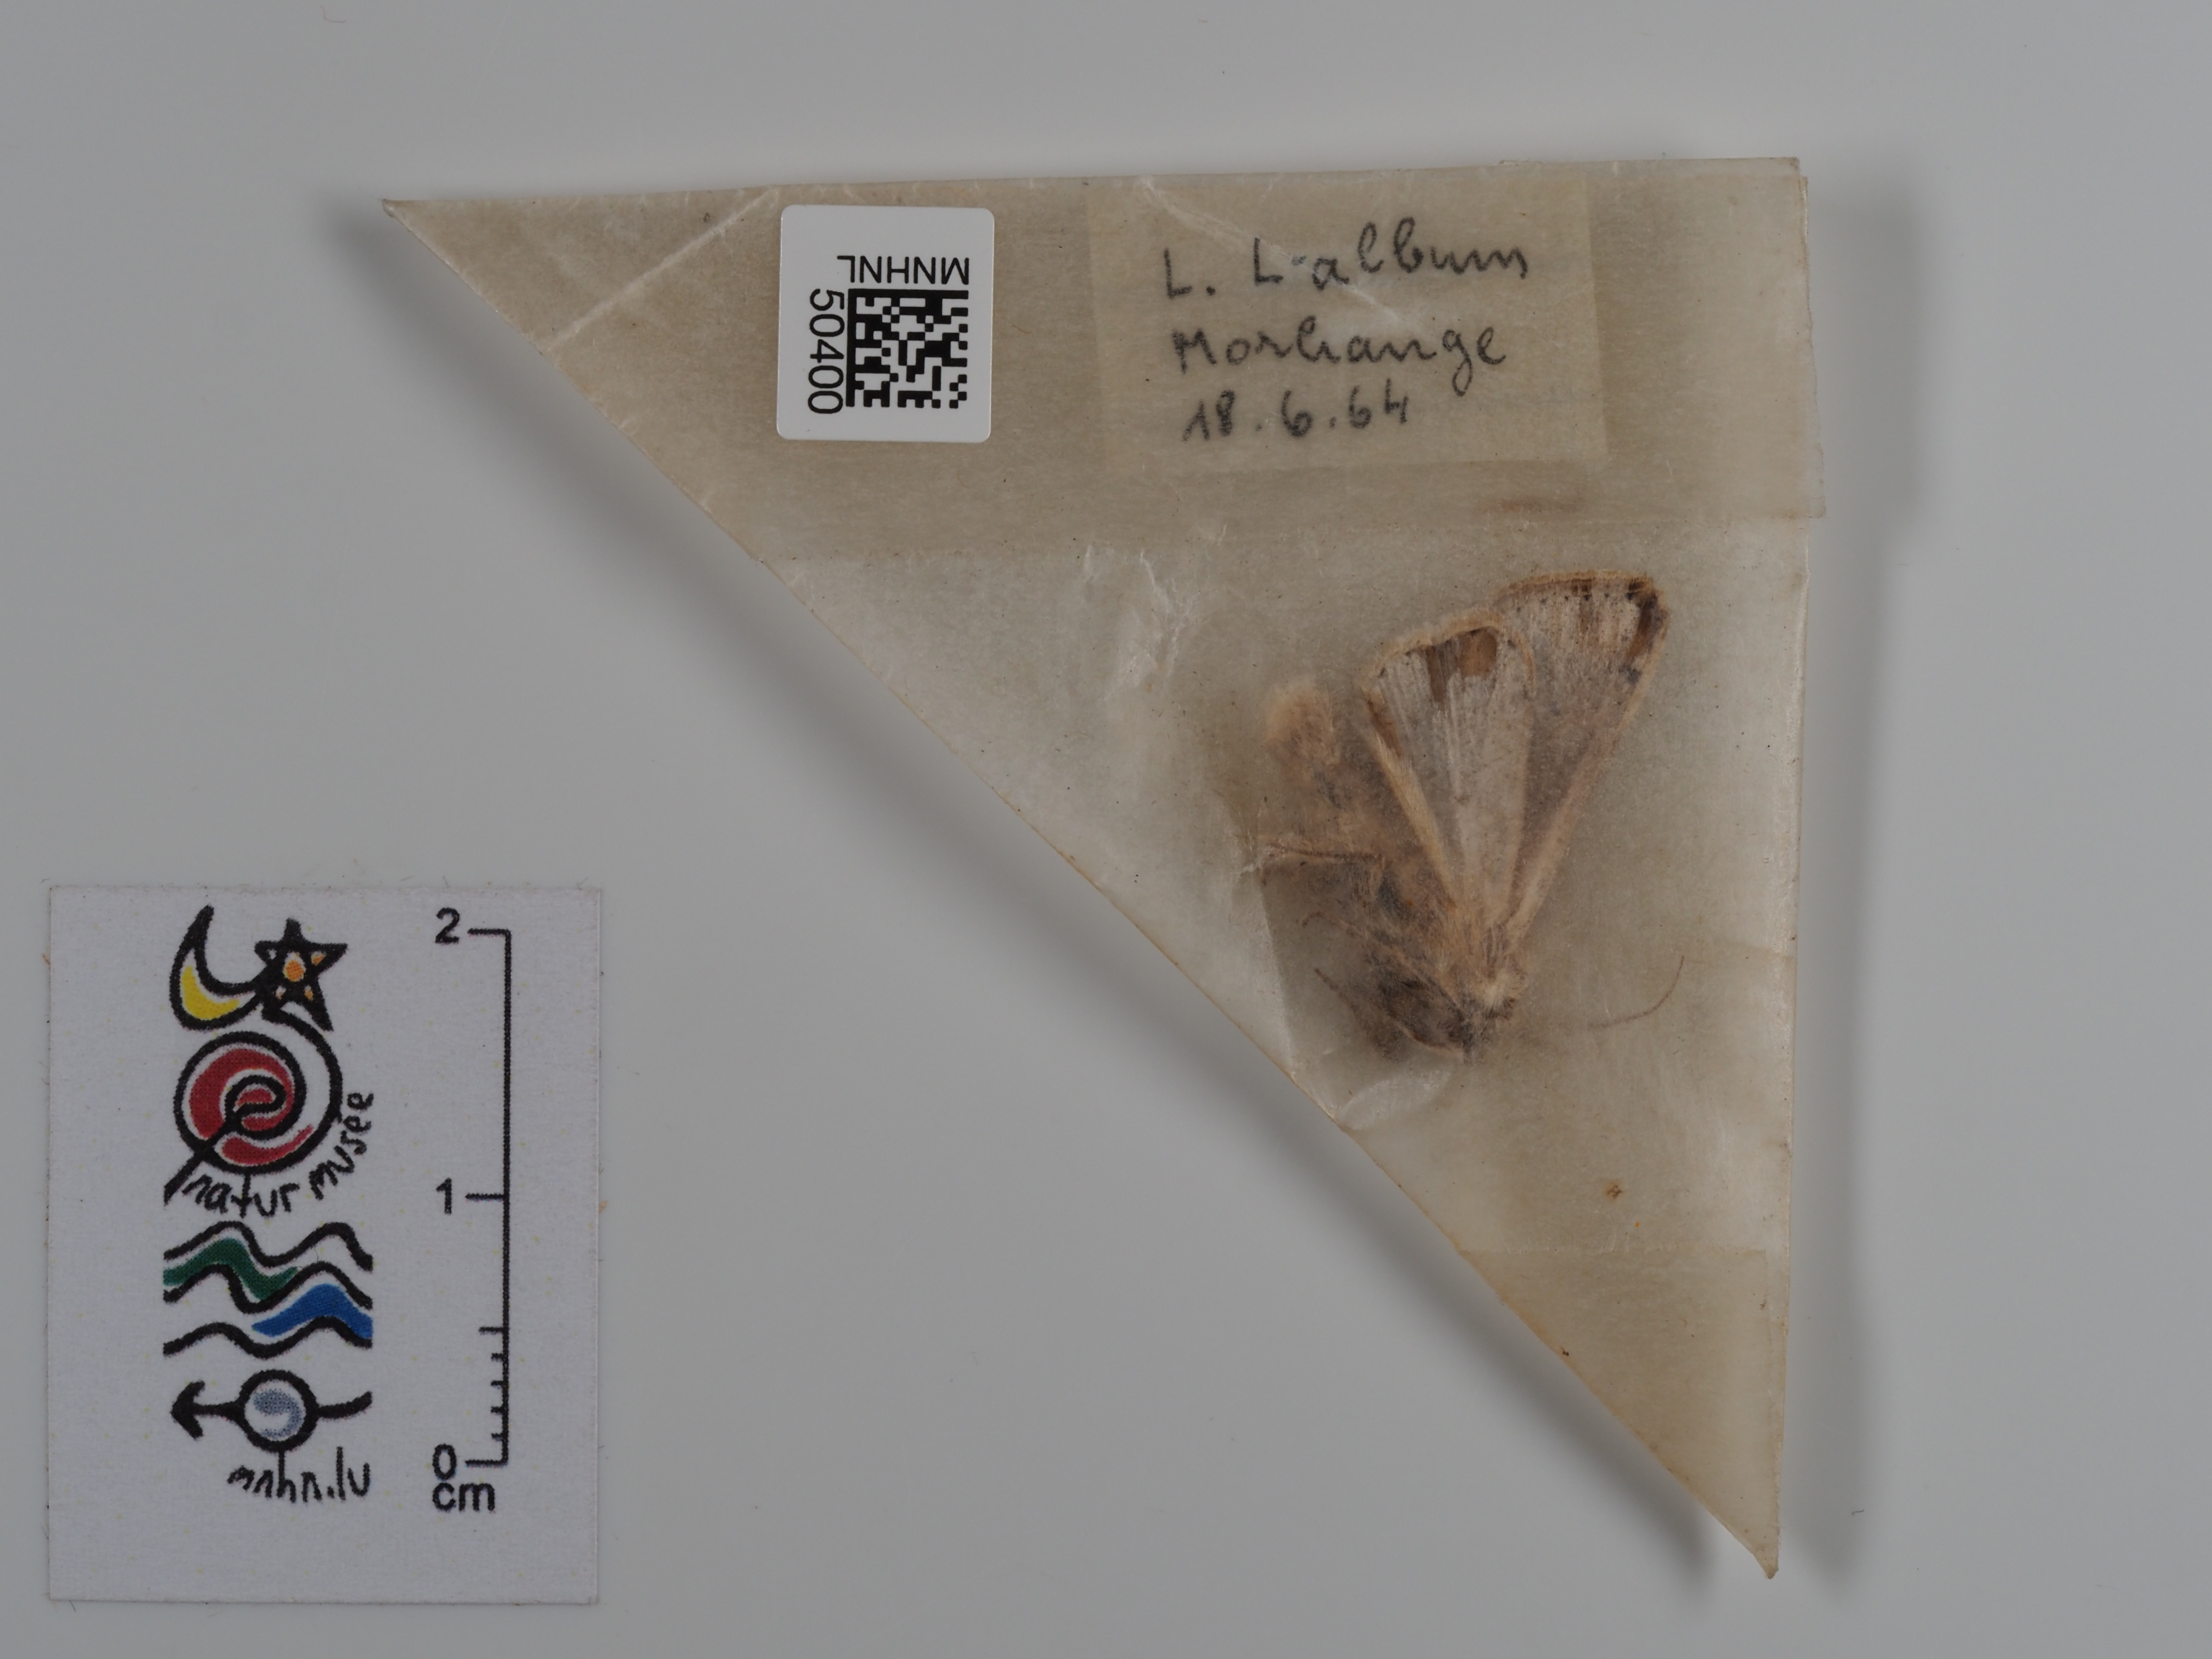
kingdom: Animalia
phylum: Arthropoda
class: Insecta
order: Lepidoptera
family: Noctuidae
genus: Mythimna
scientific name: Mythimna l-album
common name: L-album wainscot
